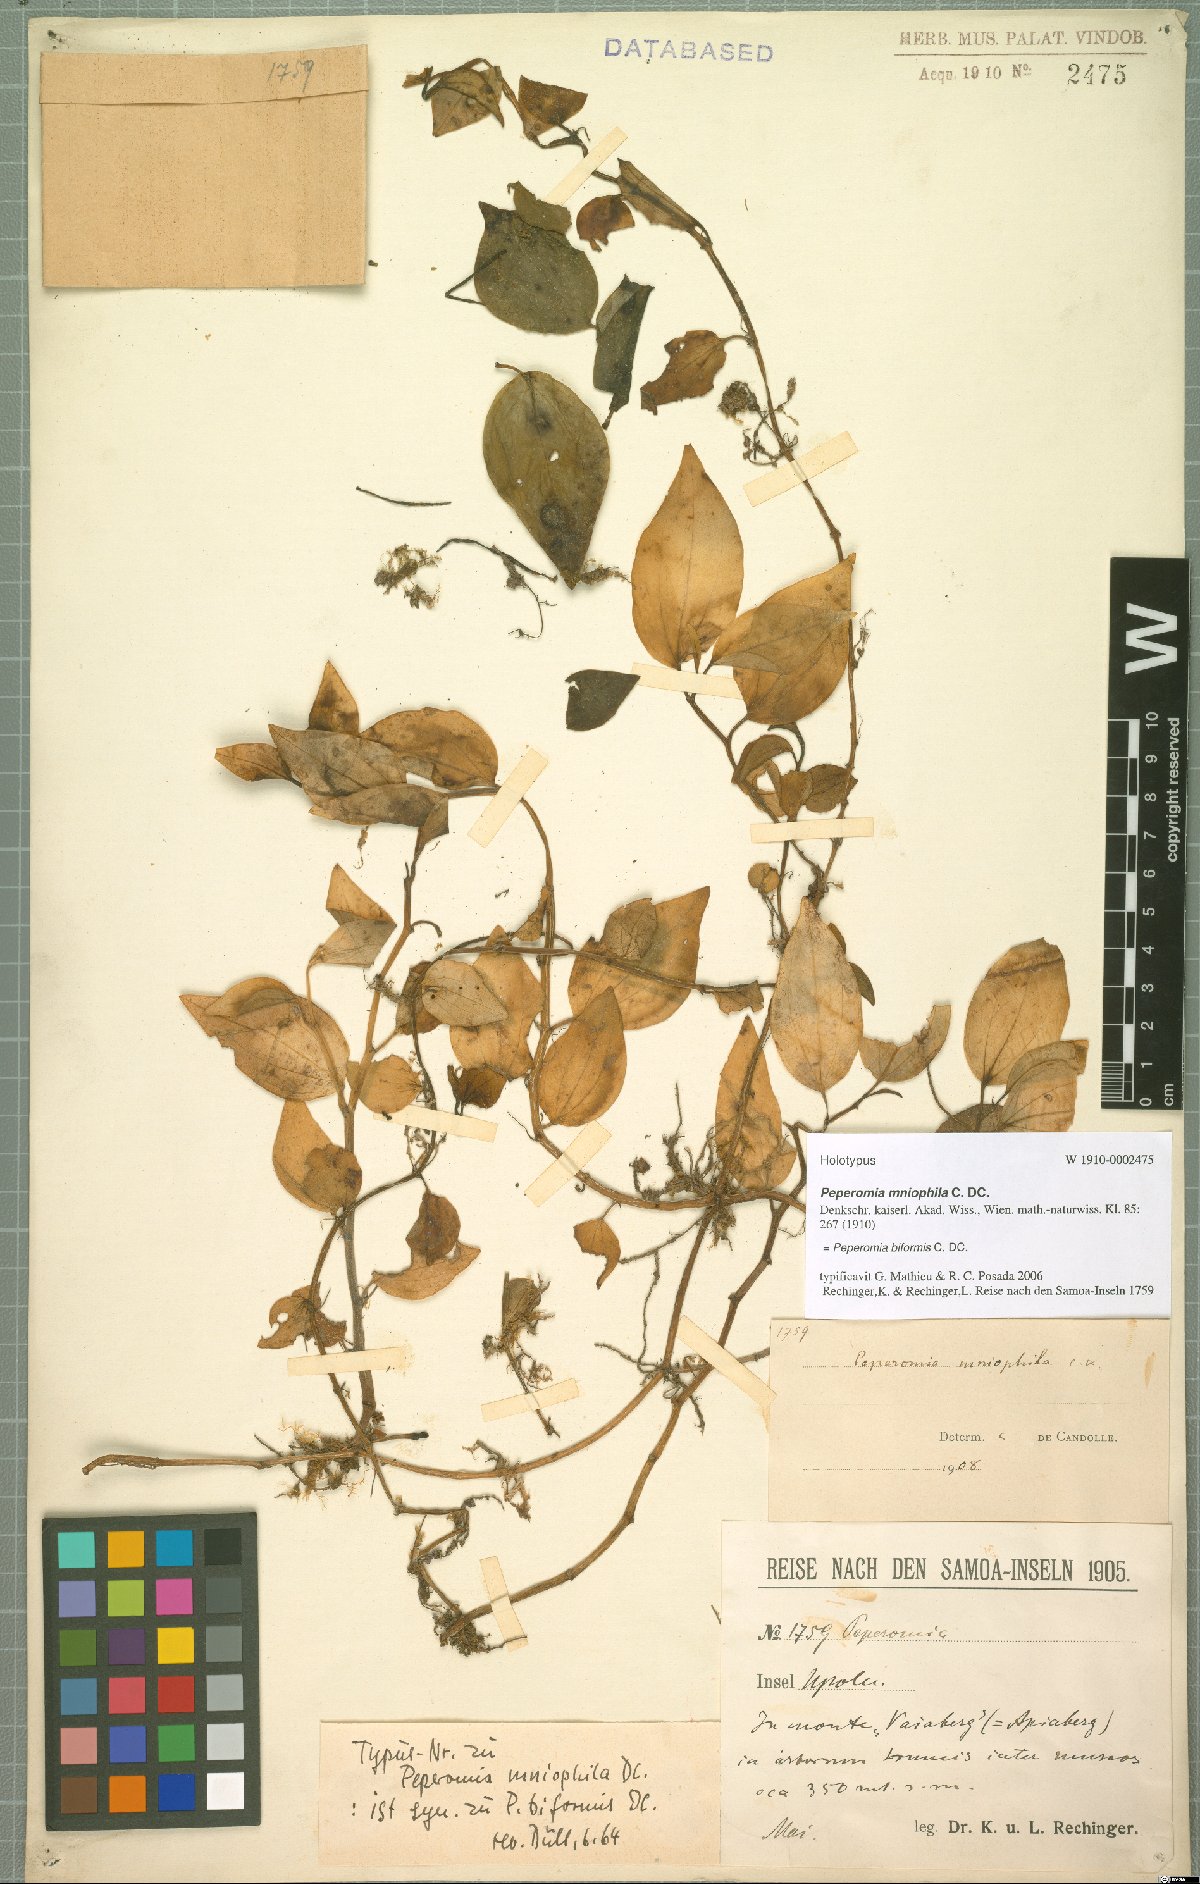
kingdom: Plantae
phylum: Tracheophyta
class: Magnoliopsida
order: Piperales
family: Piperaceae
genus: Peperomia
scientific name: Peperomia biformis
